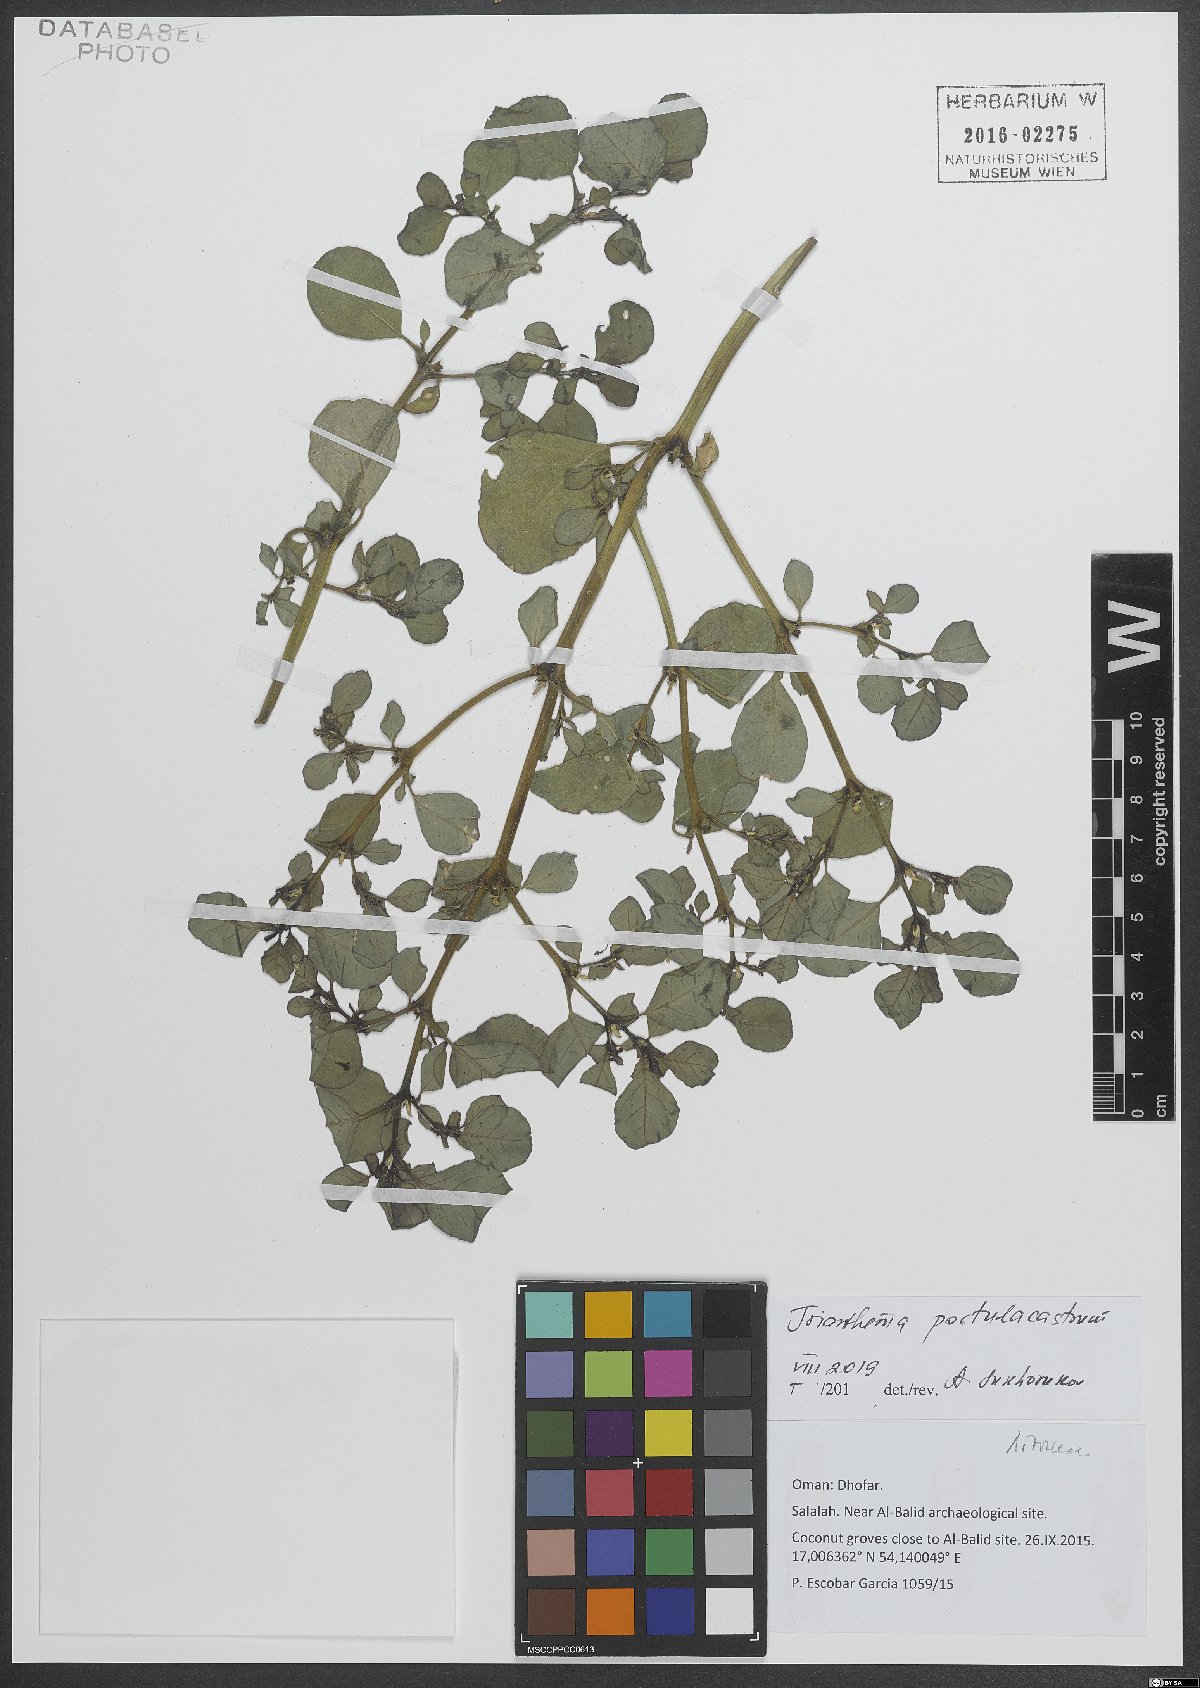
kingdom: Plantae
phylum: Tracheophyta
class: Magnoliopsida
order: Caryophyllales
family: Aizoaceae
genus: Trianthema
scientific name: Trianthema portulacastrum
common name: Desert horsepurslane
